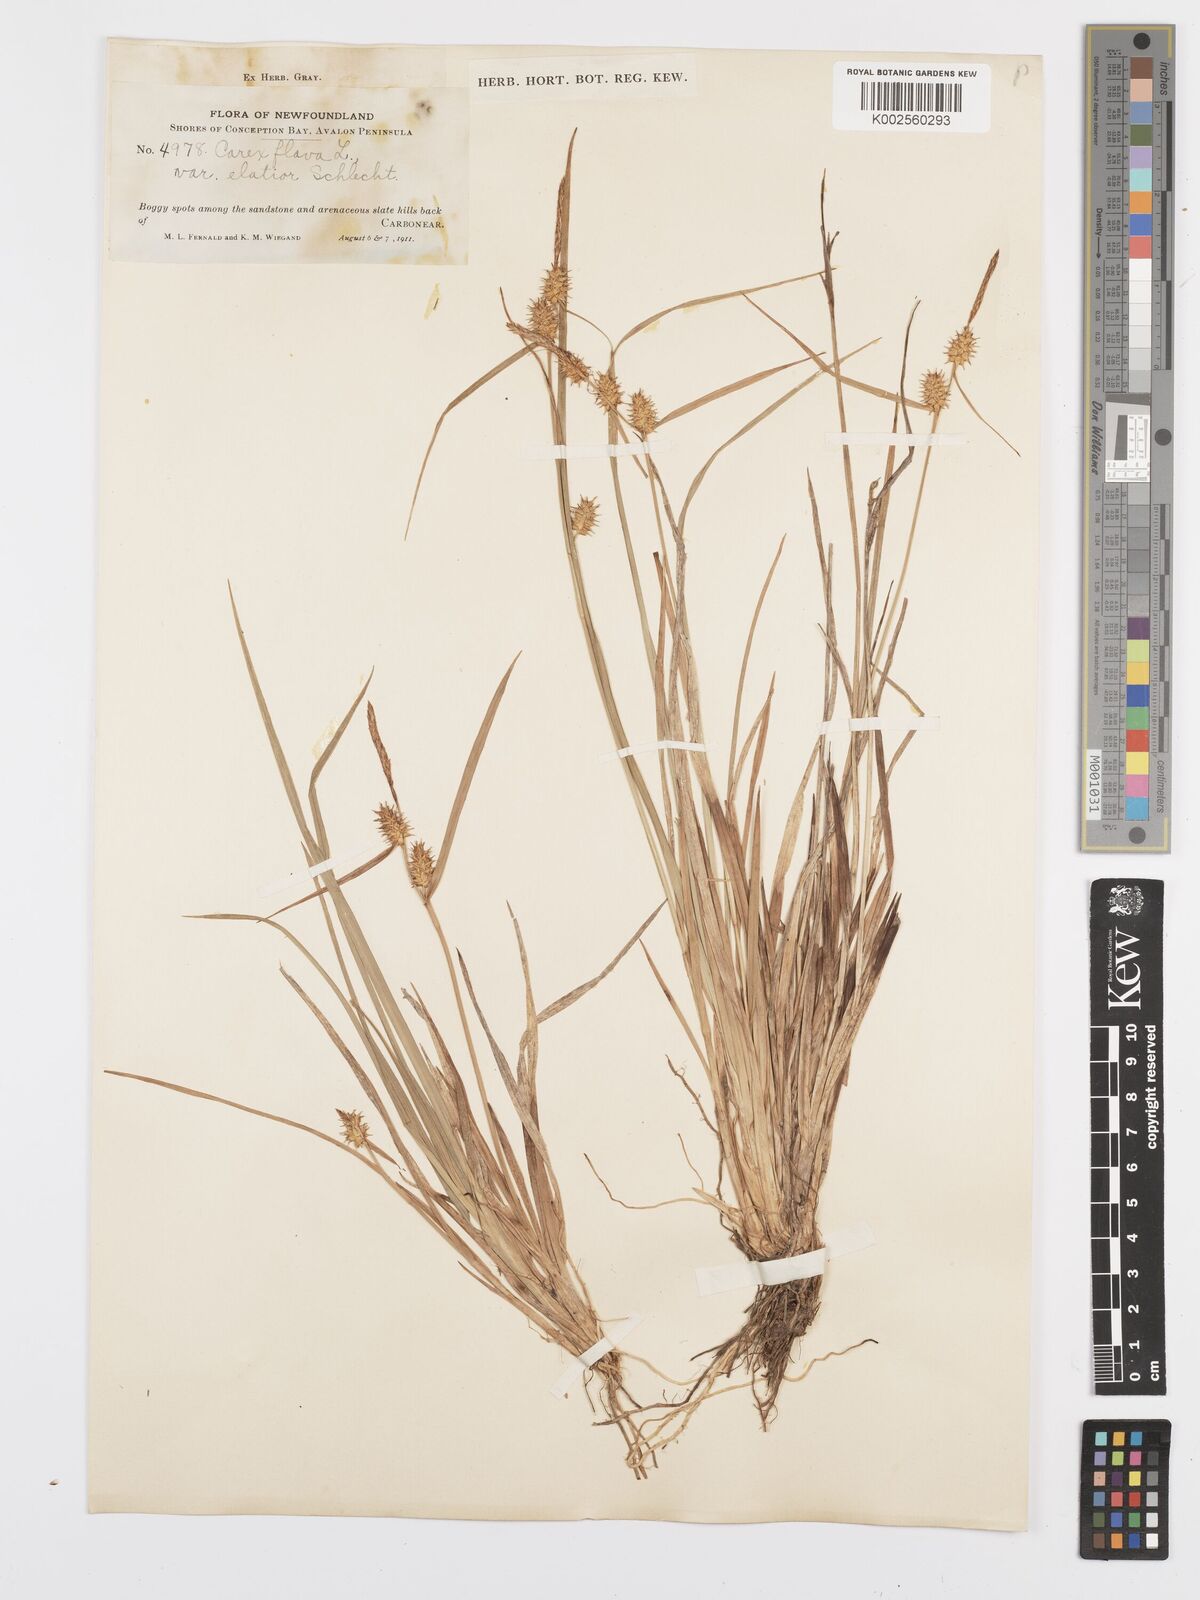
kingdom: Plantae
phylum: Tracheophyta
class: Liliopsida
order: Poales
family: Cyperaceae
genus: Carex
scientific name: Carex flava
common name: Large yellow-sedge
